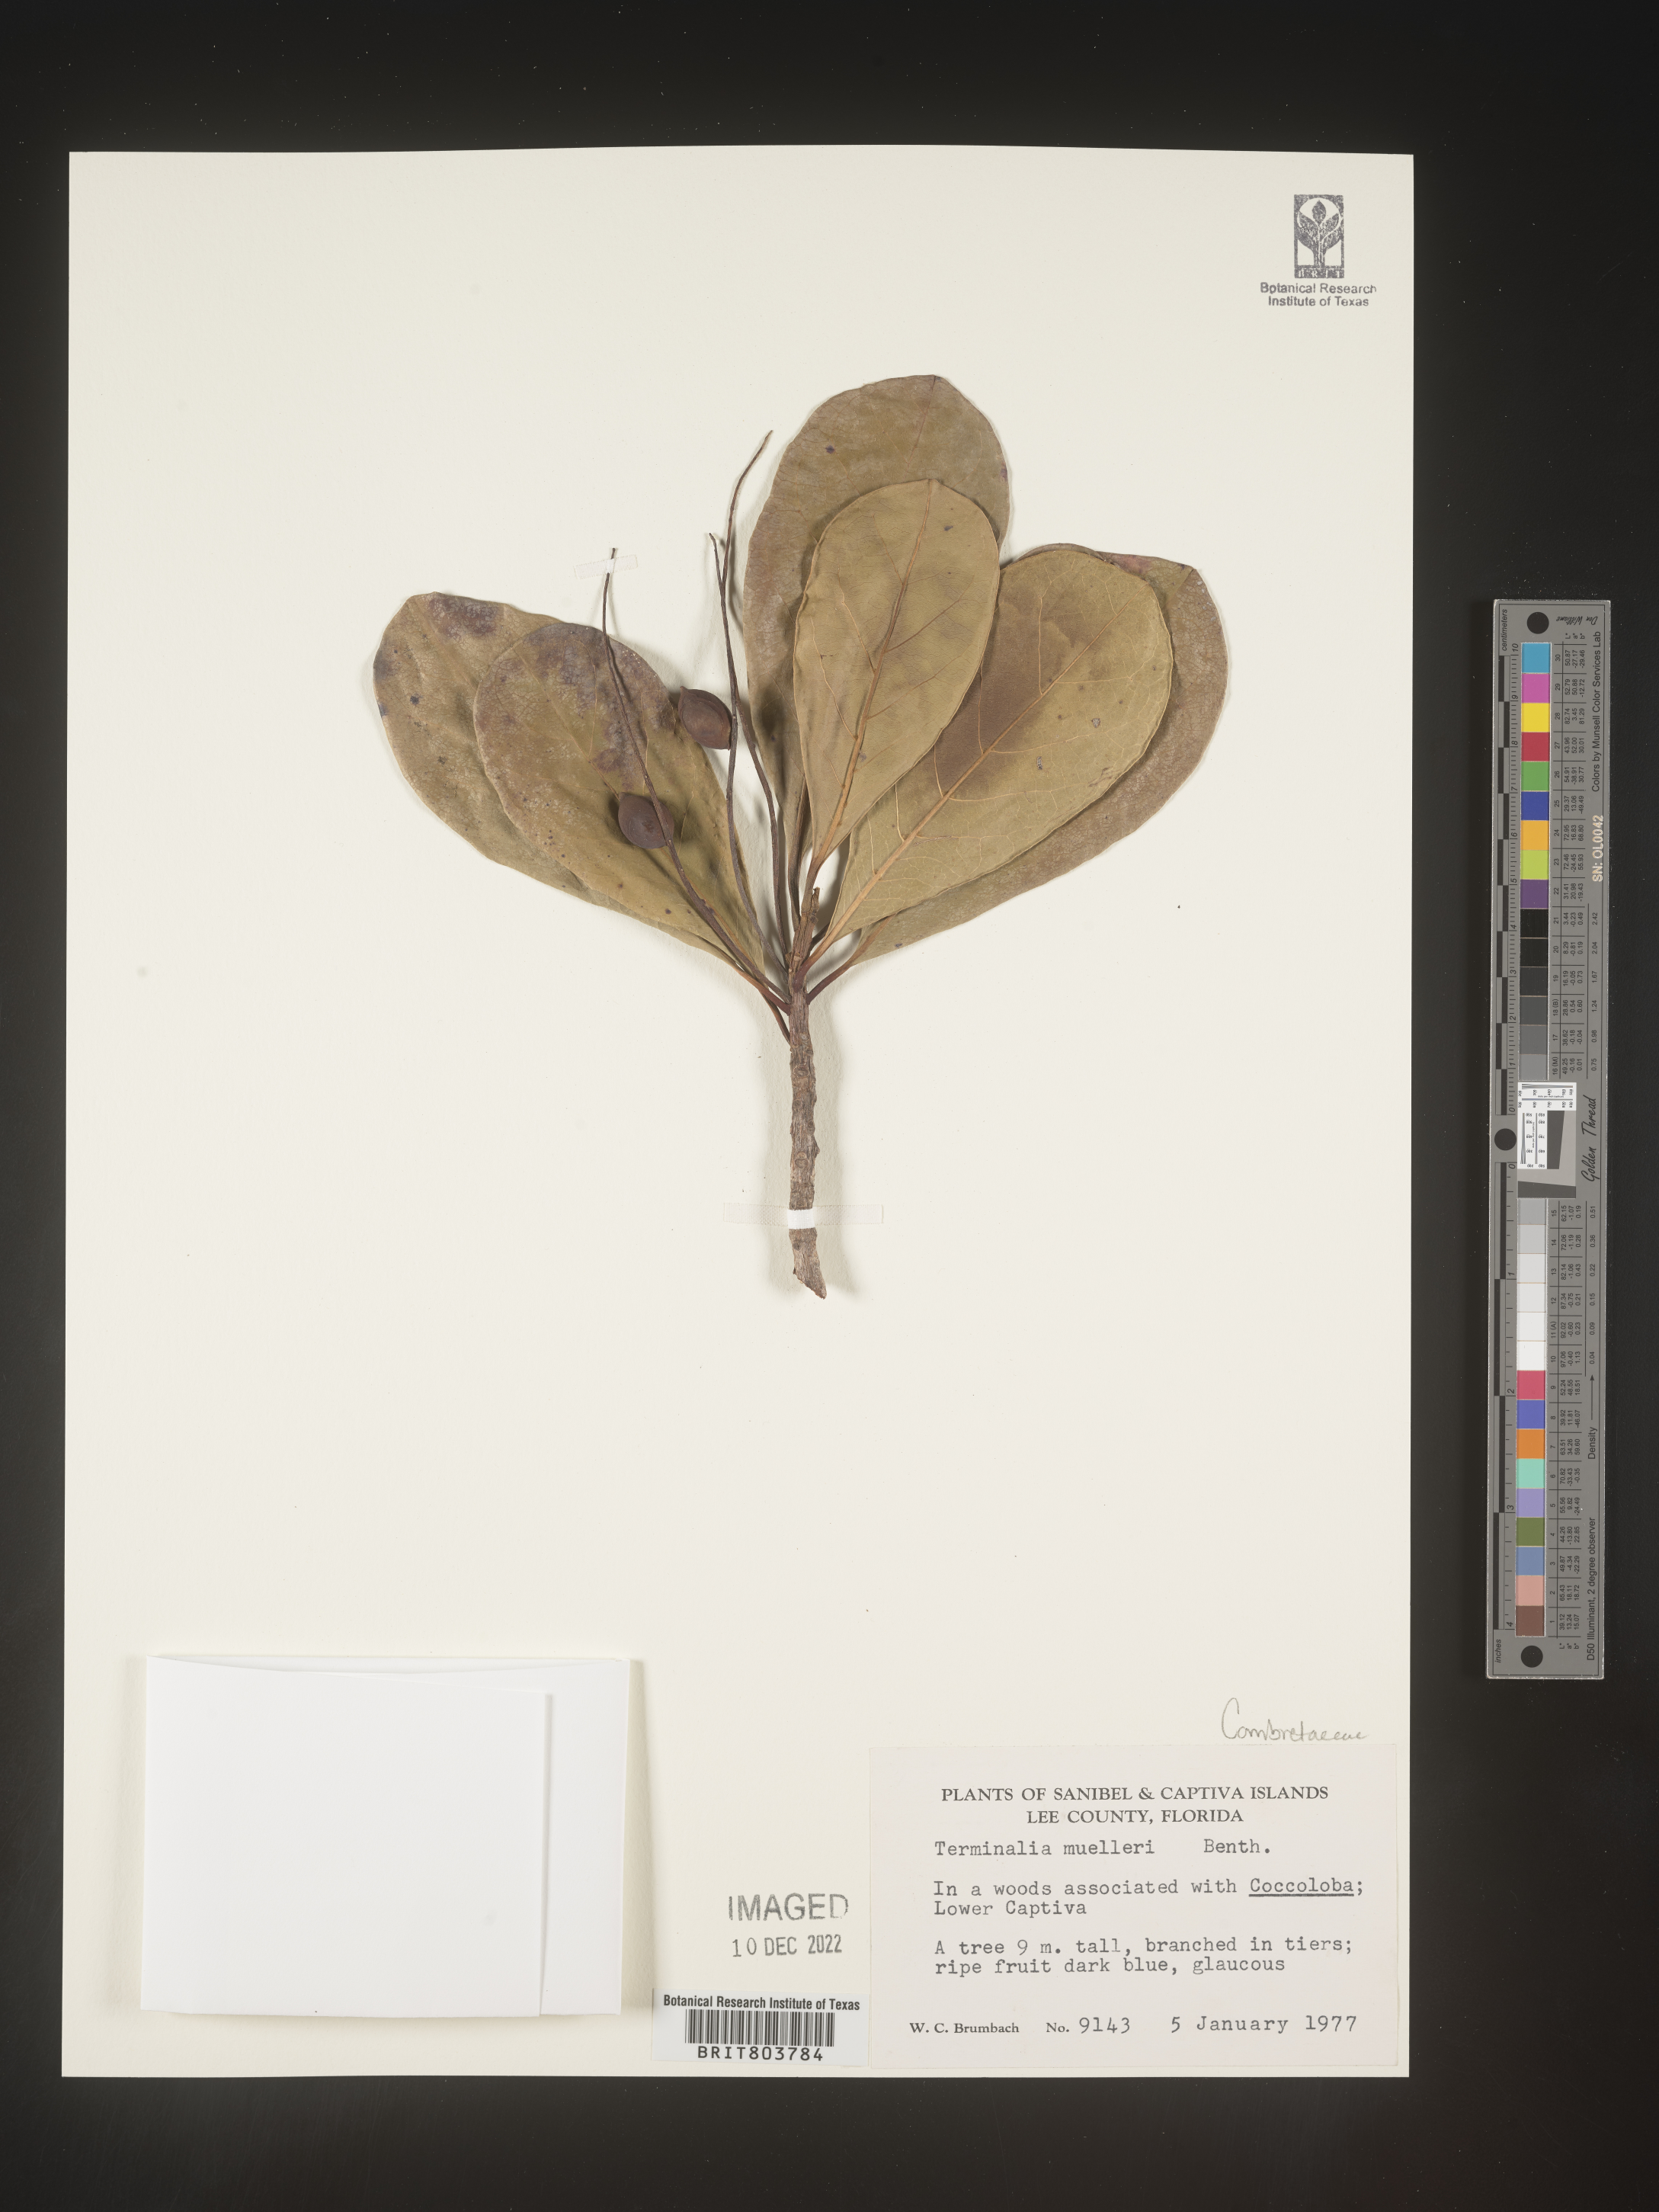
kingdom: Plantae
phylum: Tracheophyta
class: Magnoliopsida
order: Myrtales
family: Combretaceae
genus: Terminalia
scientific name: Terminalia
